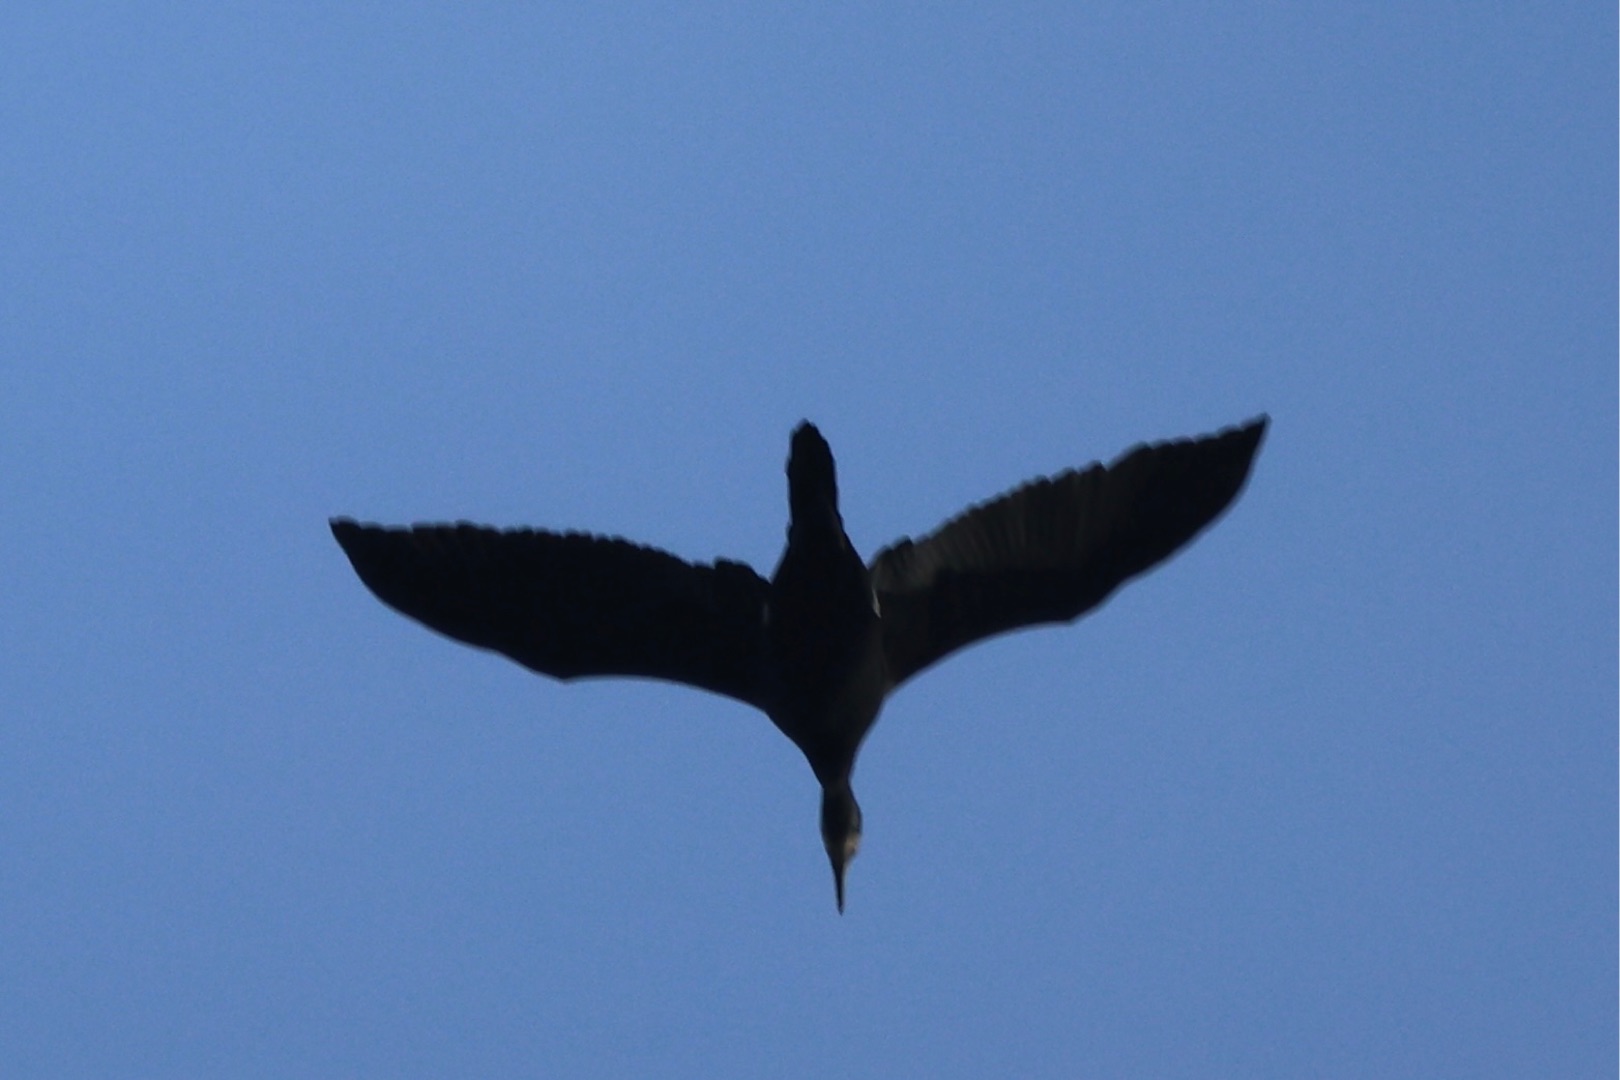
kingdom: Animalia
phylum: Chordata
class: Aves
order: Suliformes
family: Phalacrocoracidae
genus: Phalacrocorax
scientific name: Phalacrocorax carbo
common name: Skarv
